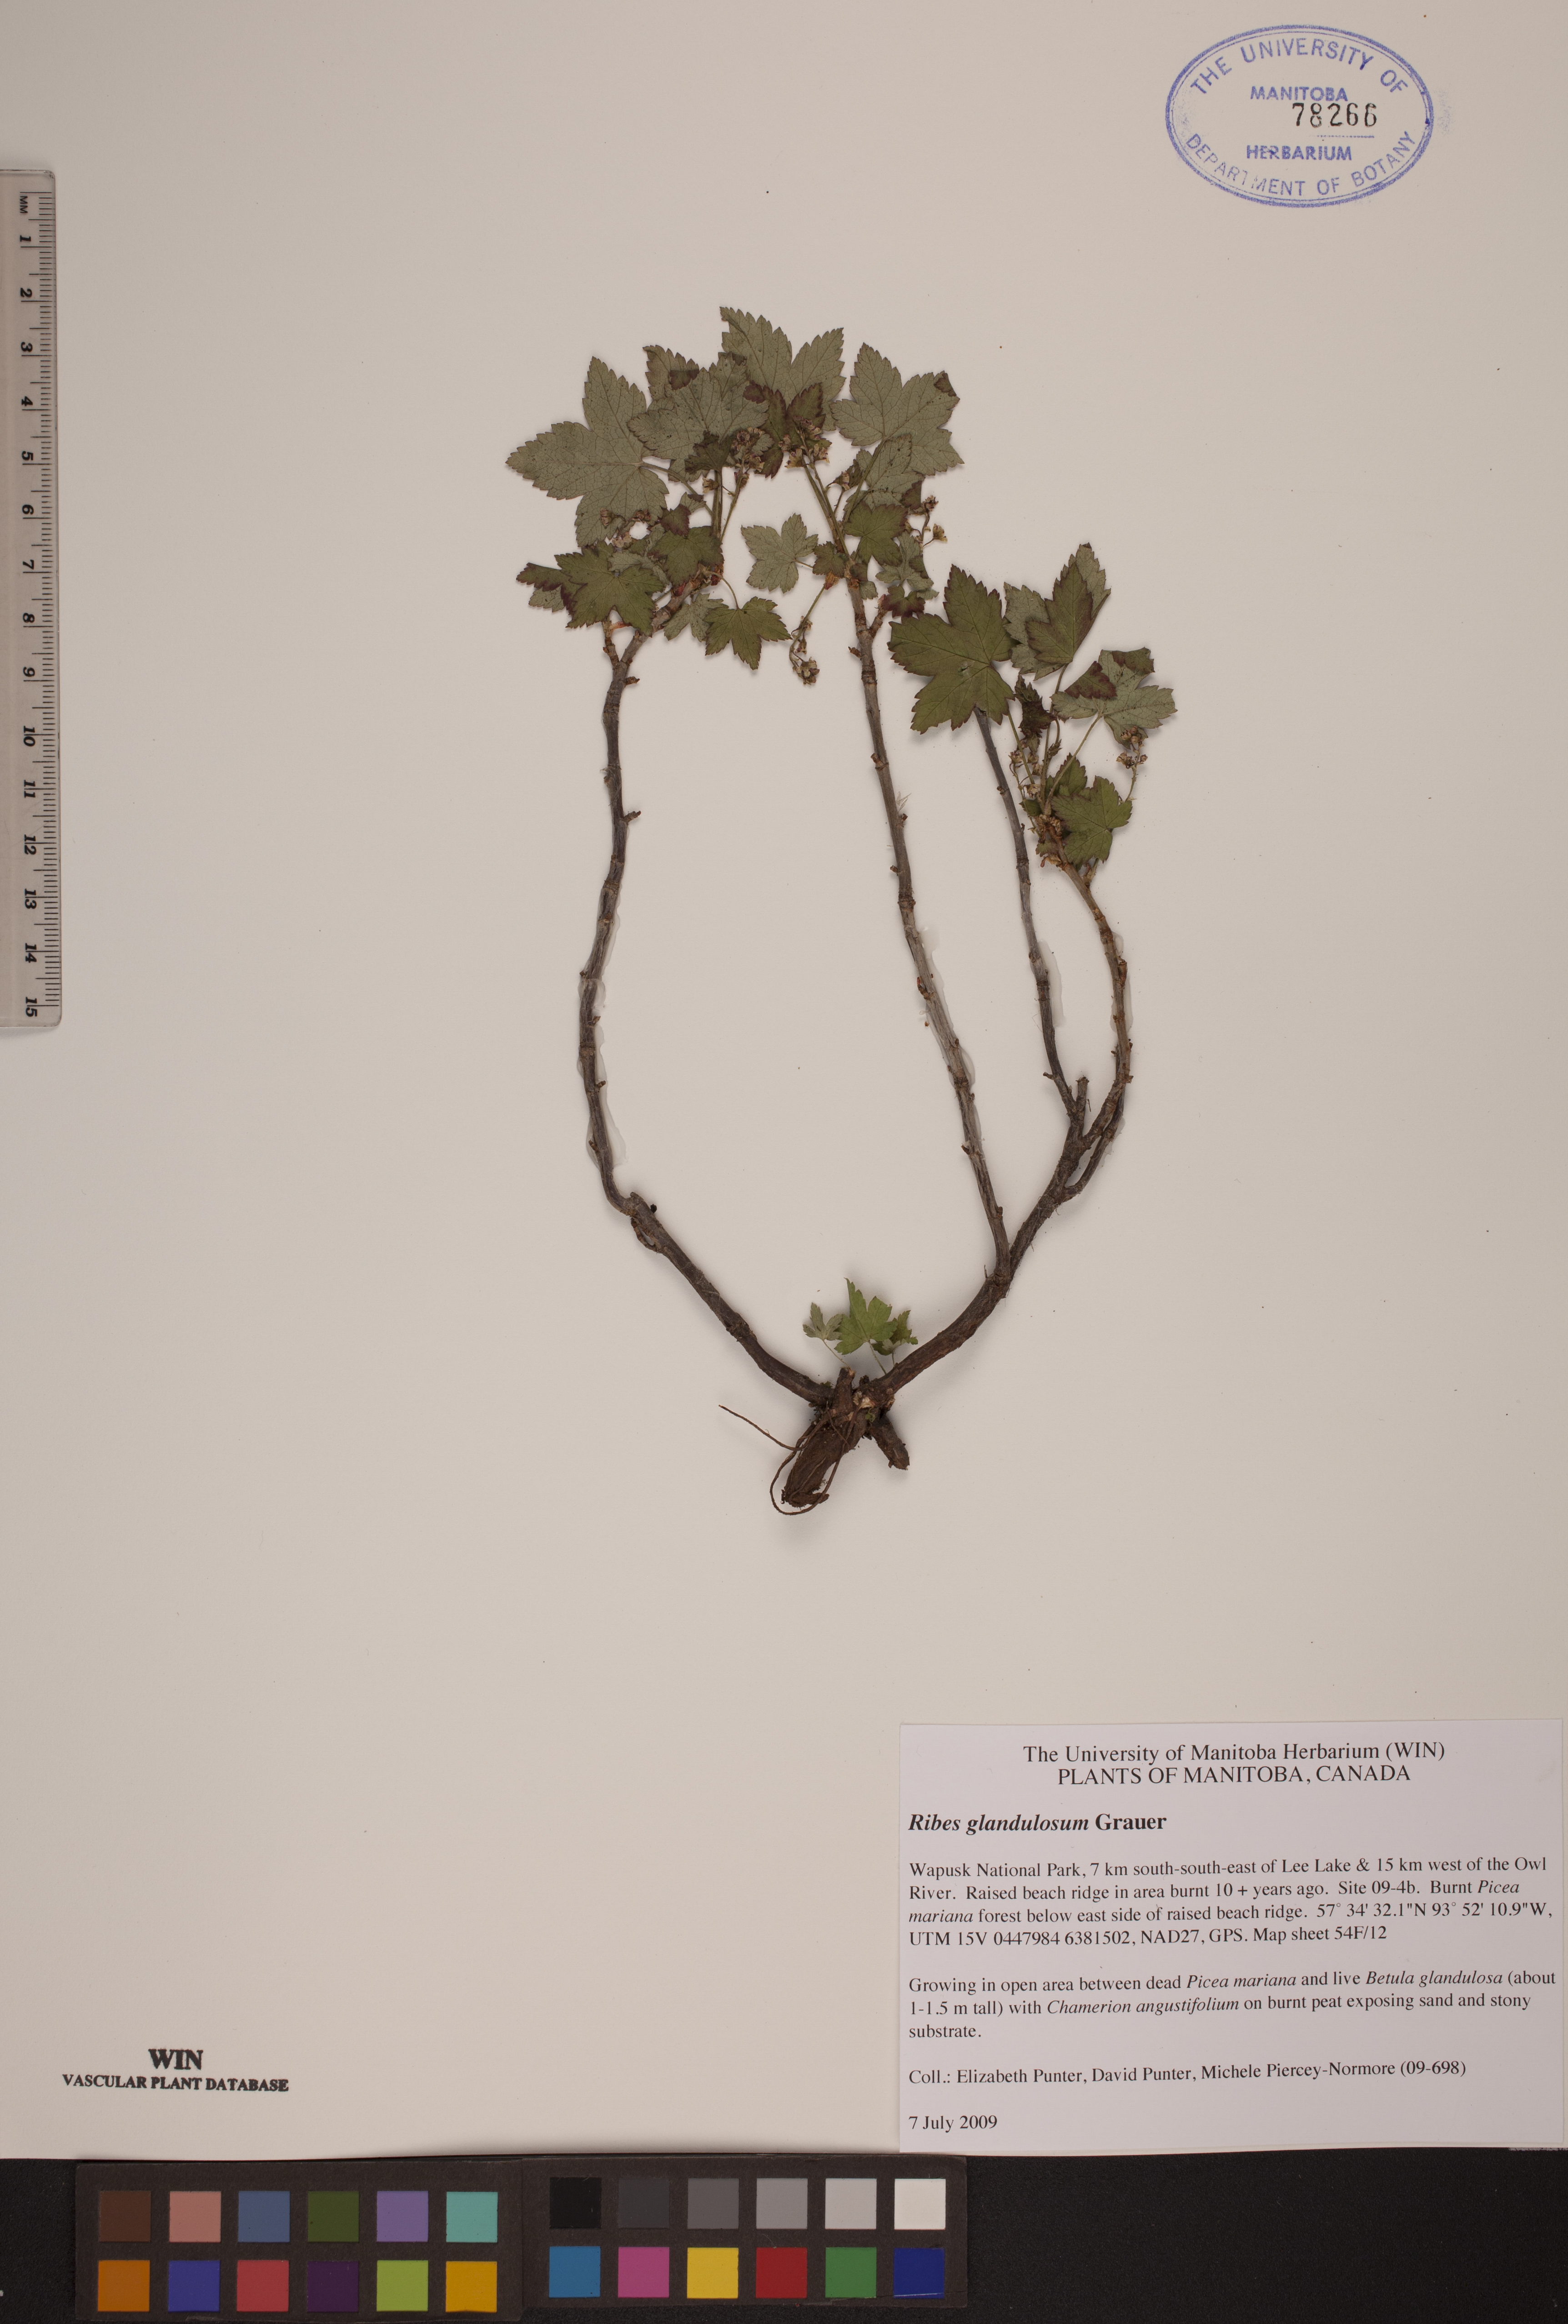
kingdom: Plantae
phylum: Tracheophyta
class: Magnoliopsida
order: Saxifragales
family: Grossulariaceae
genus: Ribes
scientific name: Ribes glandulosum
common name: Skunk currant
